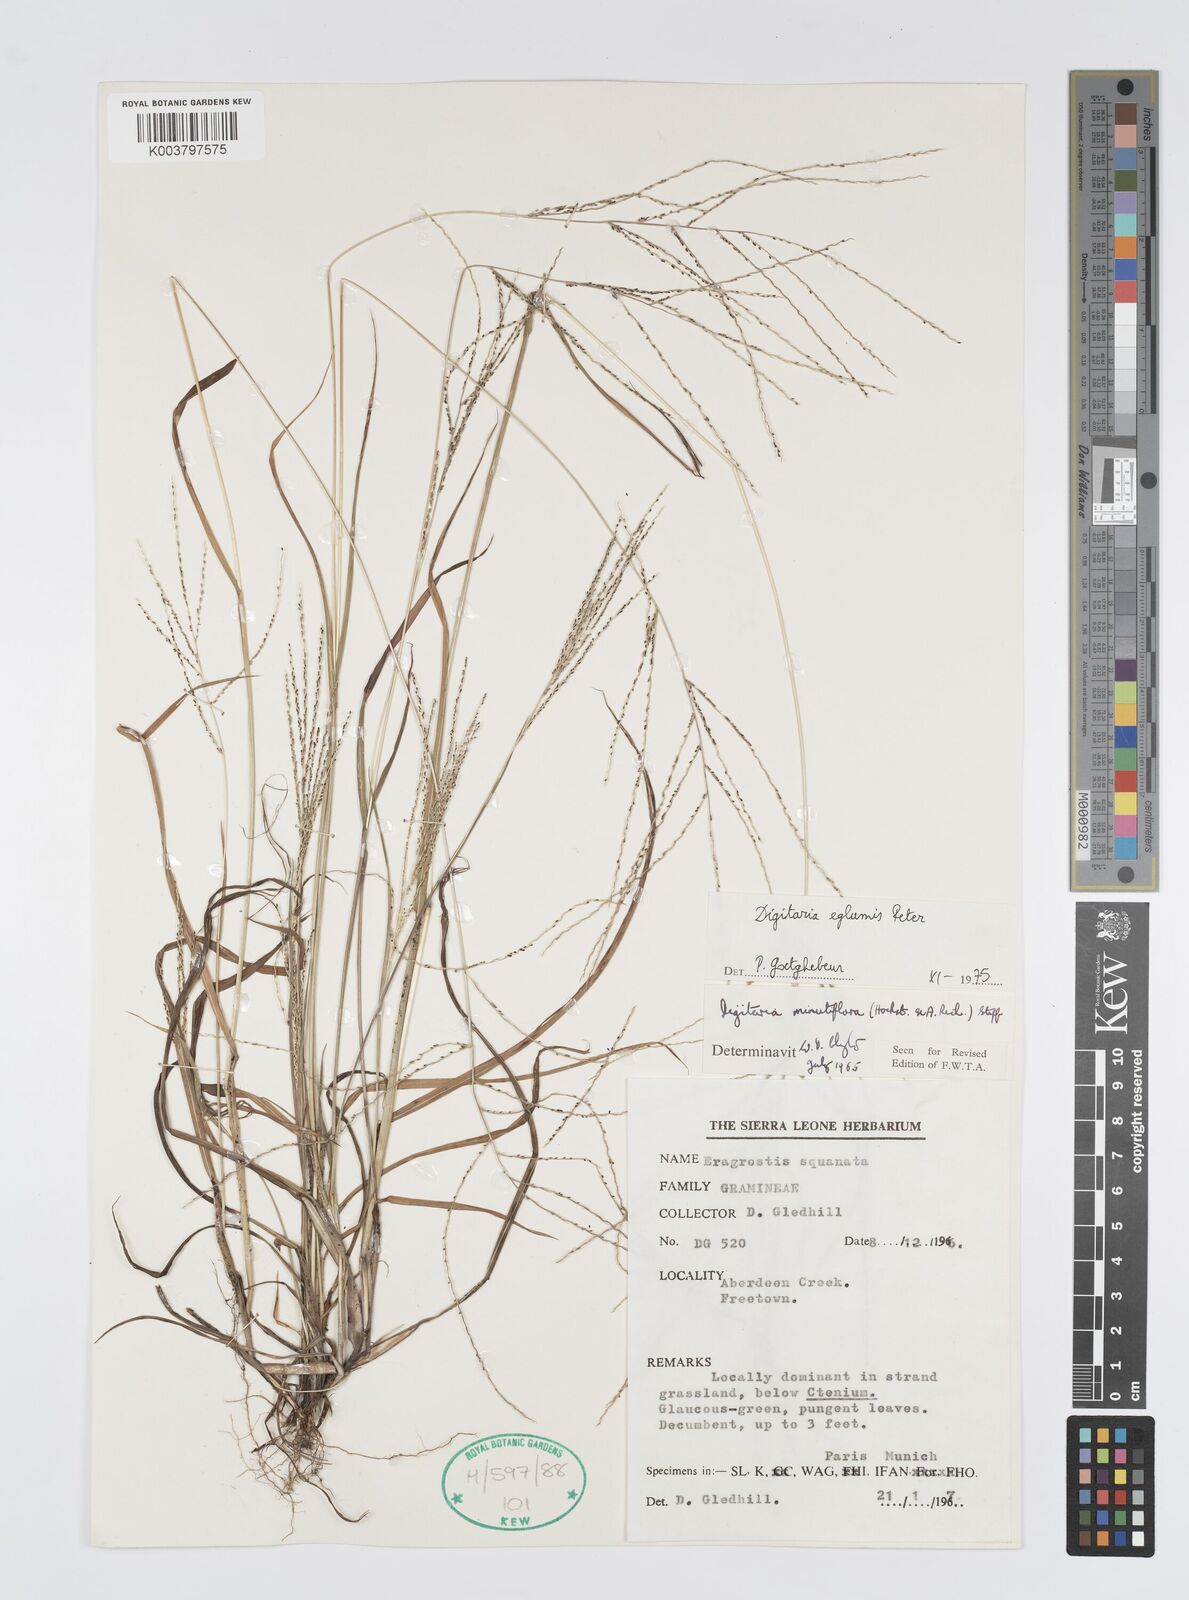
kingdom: Plantae
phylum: Tracheophyta
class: Liliopsida
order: Poales
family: Poaceae
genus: Digitaria
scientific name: Digitaria pseudodiagonalis
